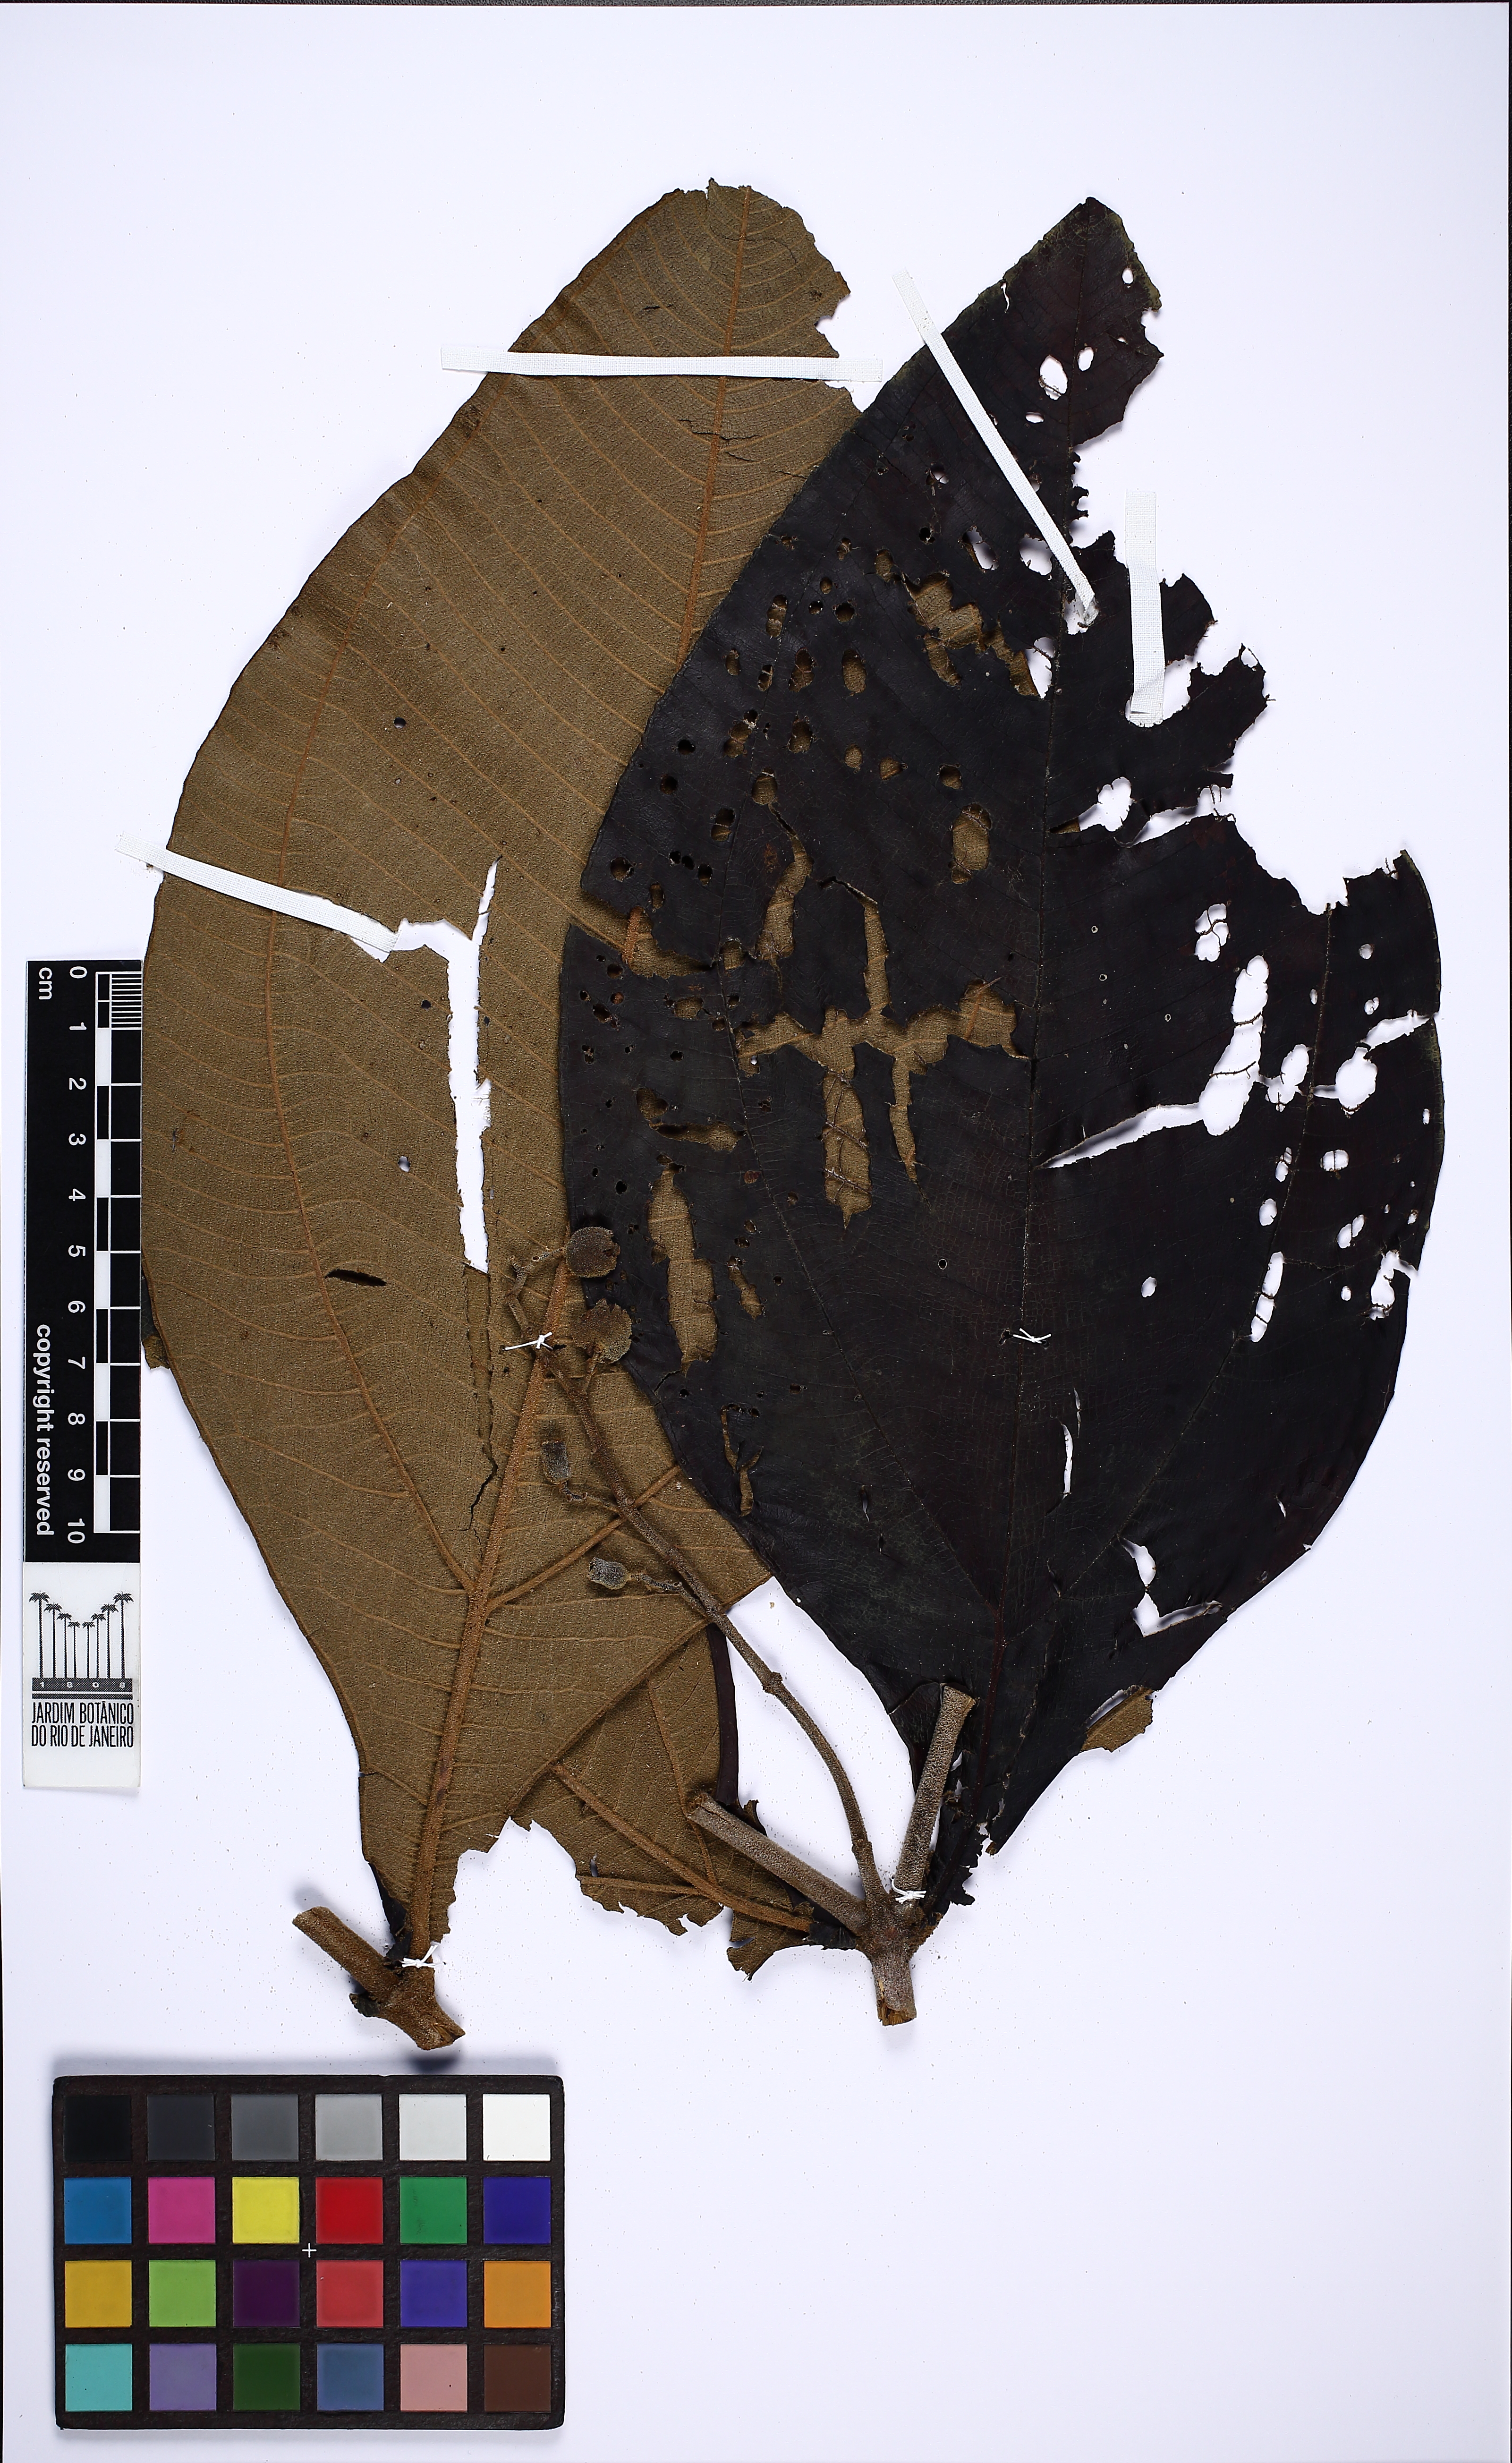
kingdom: Plantae
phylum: Tracheophyta
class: Magnoliopsida
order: Myrtales
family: Melastomataceae
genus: Miconia
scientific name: Miconia tomentosa
